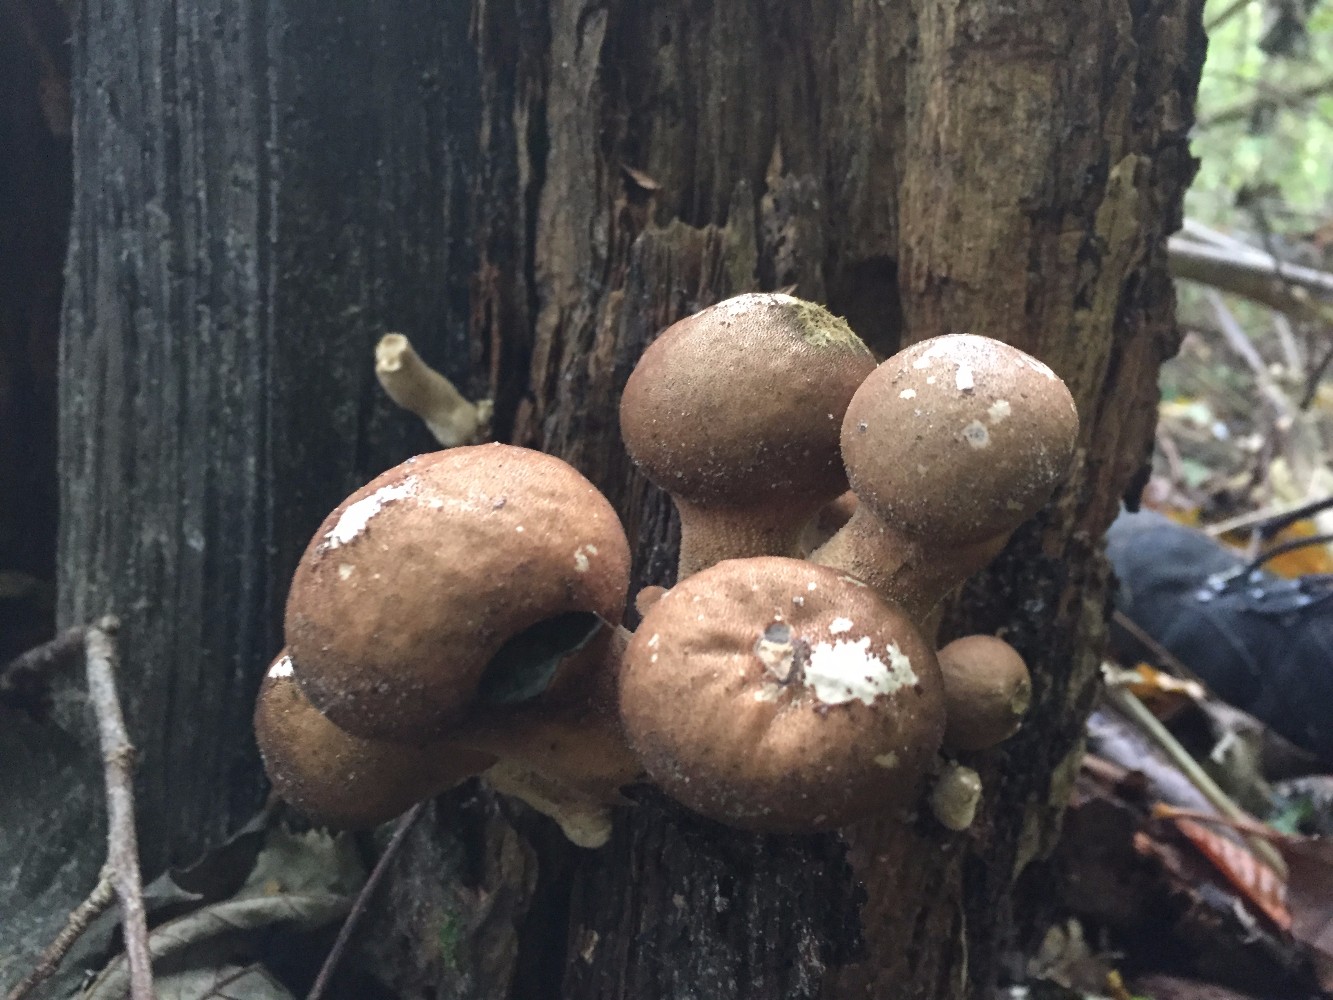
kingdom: Fungi
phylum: Basidiomycota
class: Agaricomycetes
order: Agaricales
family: Lycoperdaceae
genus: Apioperdon
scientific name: Apioperdon pyriforme
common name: pære-støvbold
